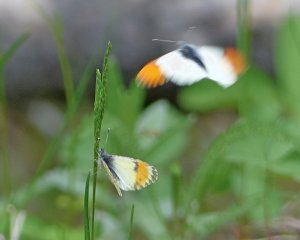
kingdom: Animalia
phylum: Arthropoda
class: Insecta
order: Lepidoptera
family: Pieridae
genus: Anthocharis
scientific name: Anthocharis sara
